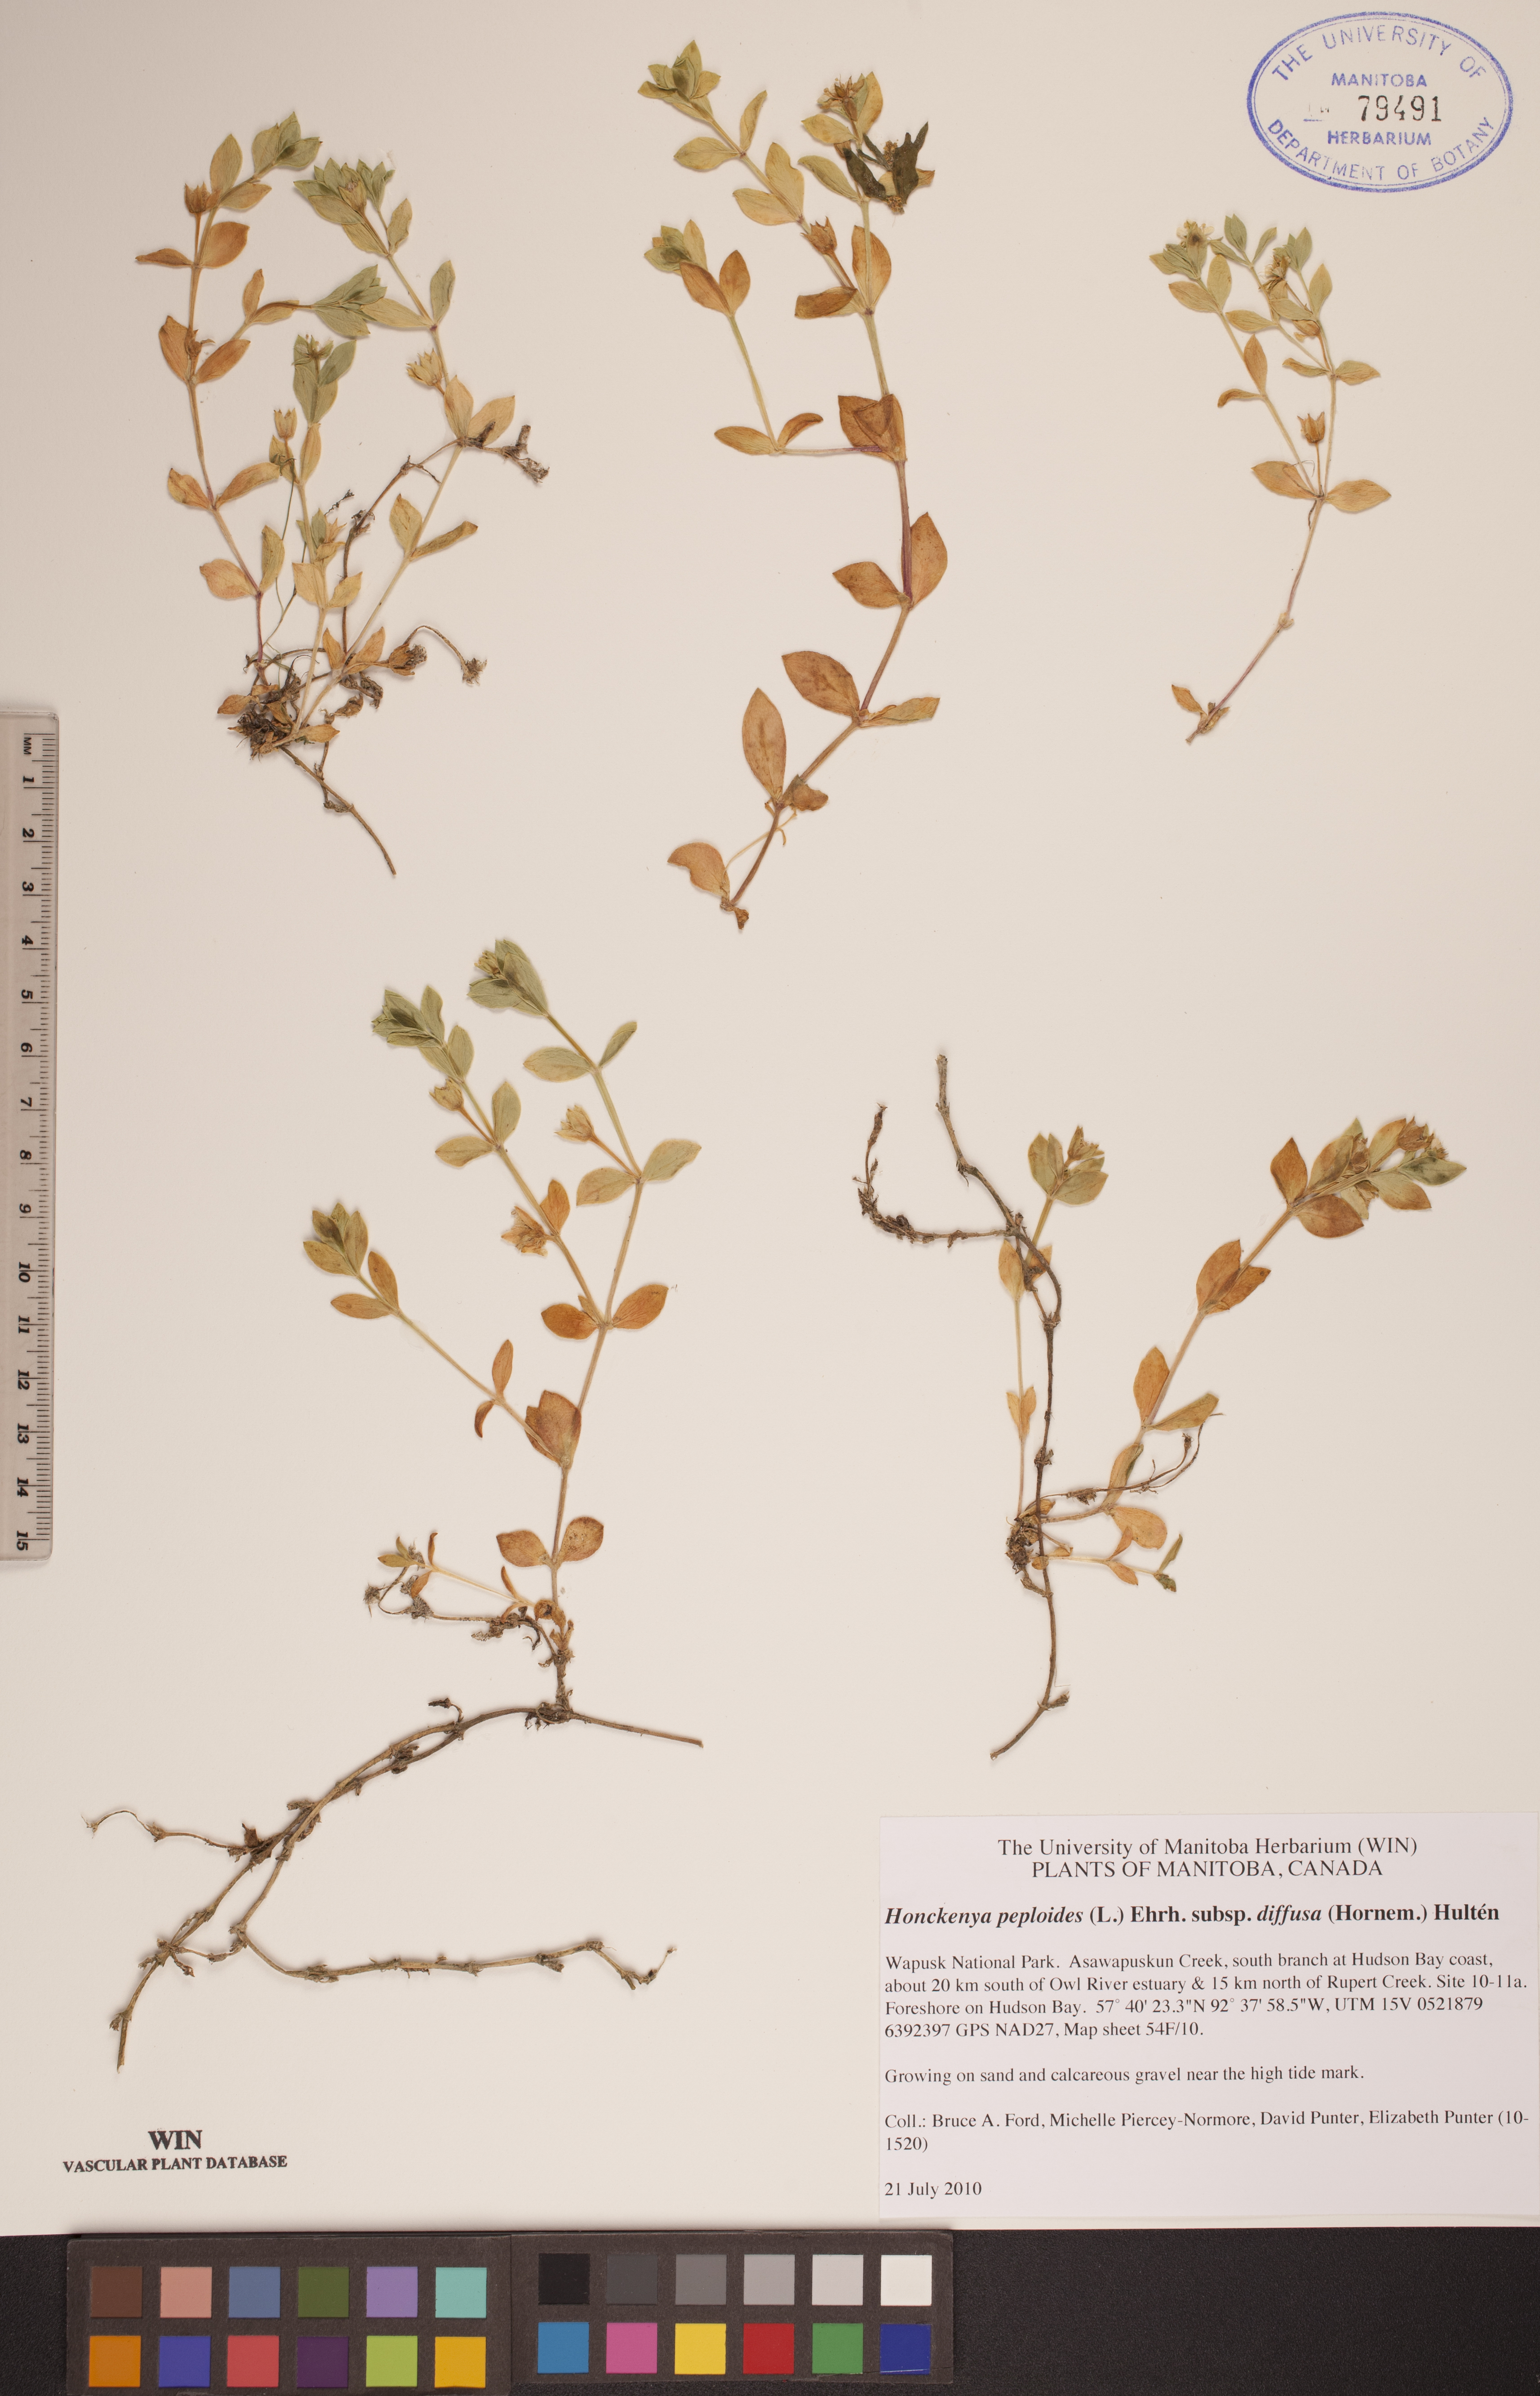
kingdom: Plantae
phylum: Tracheophyta
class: Magnoliopsida
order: Caryophyllales
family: Caryophyllaceae
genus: Honckenya
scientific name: Honckenya peploides
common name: Sea sandwort
